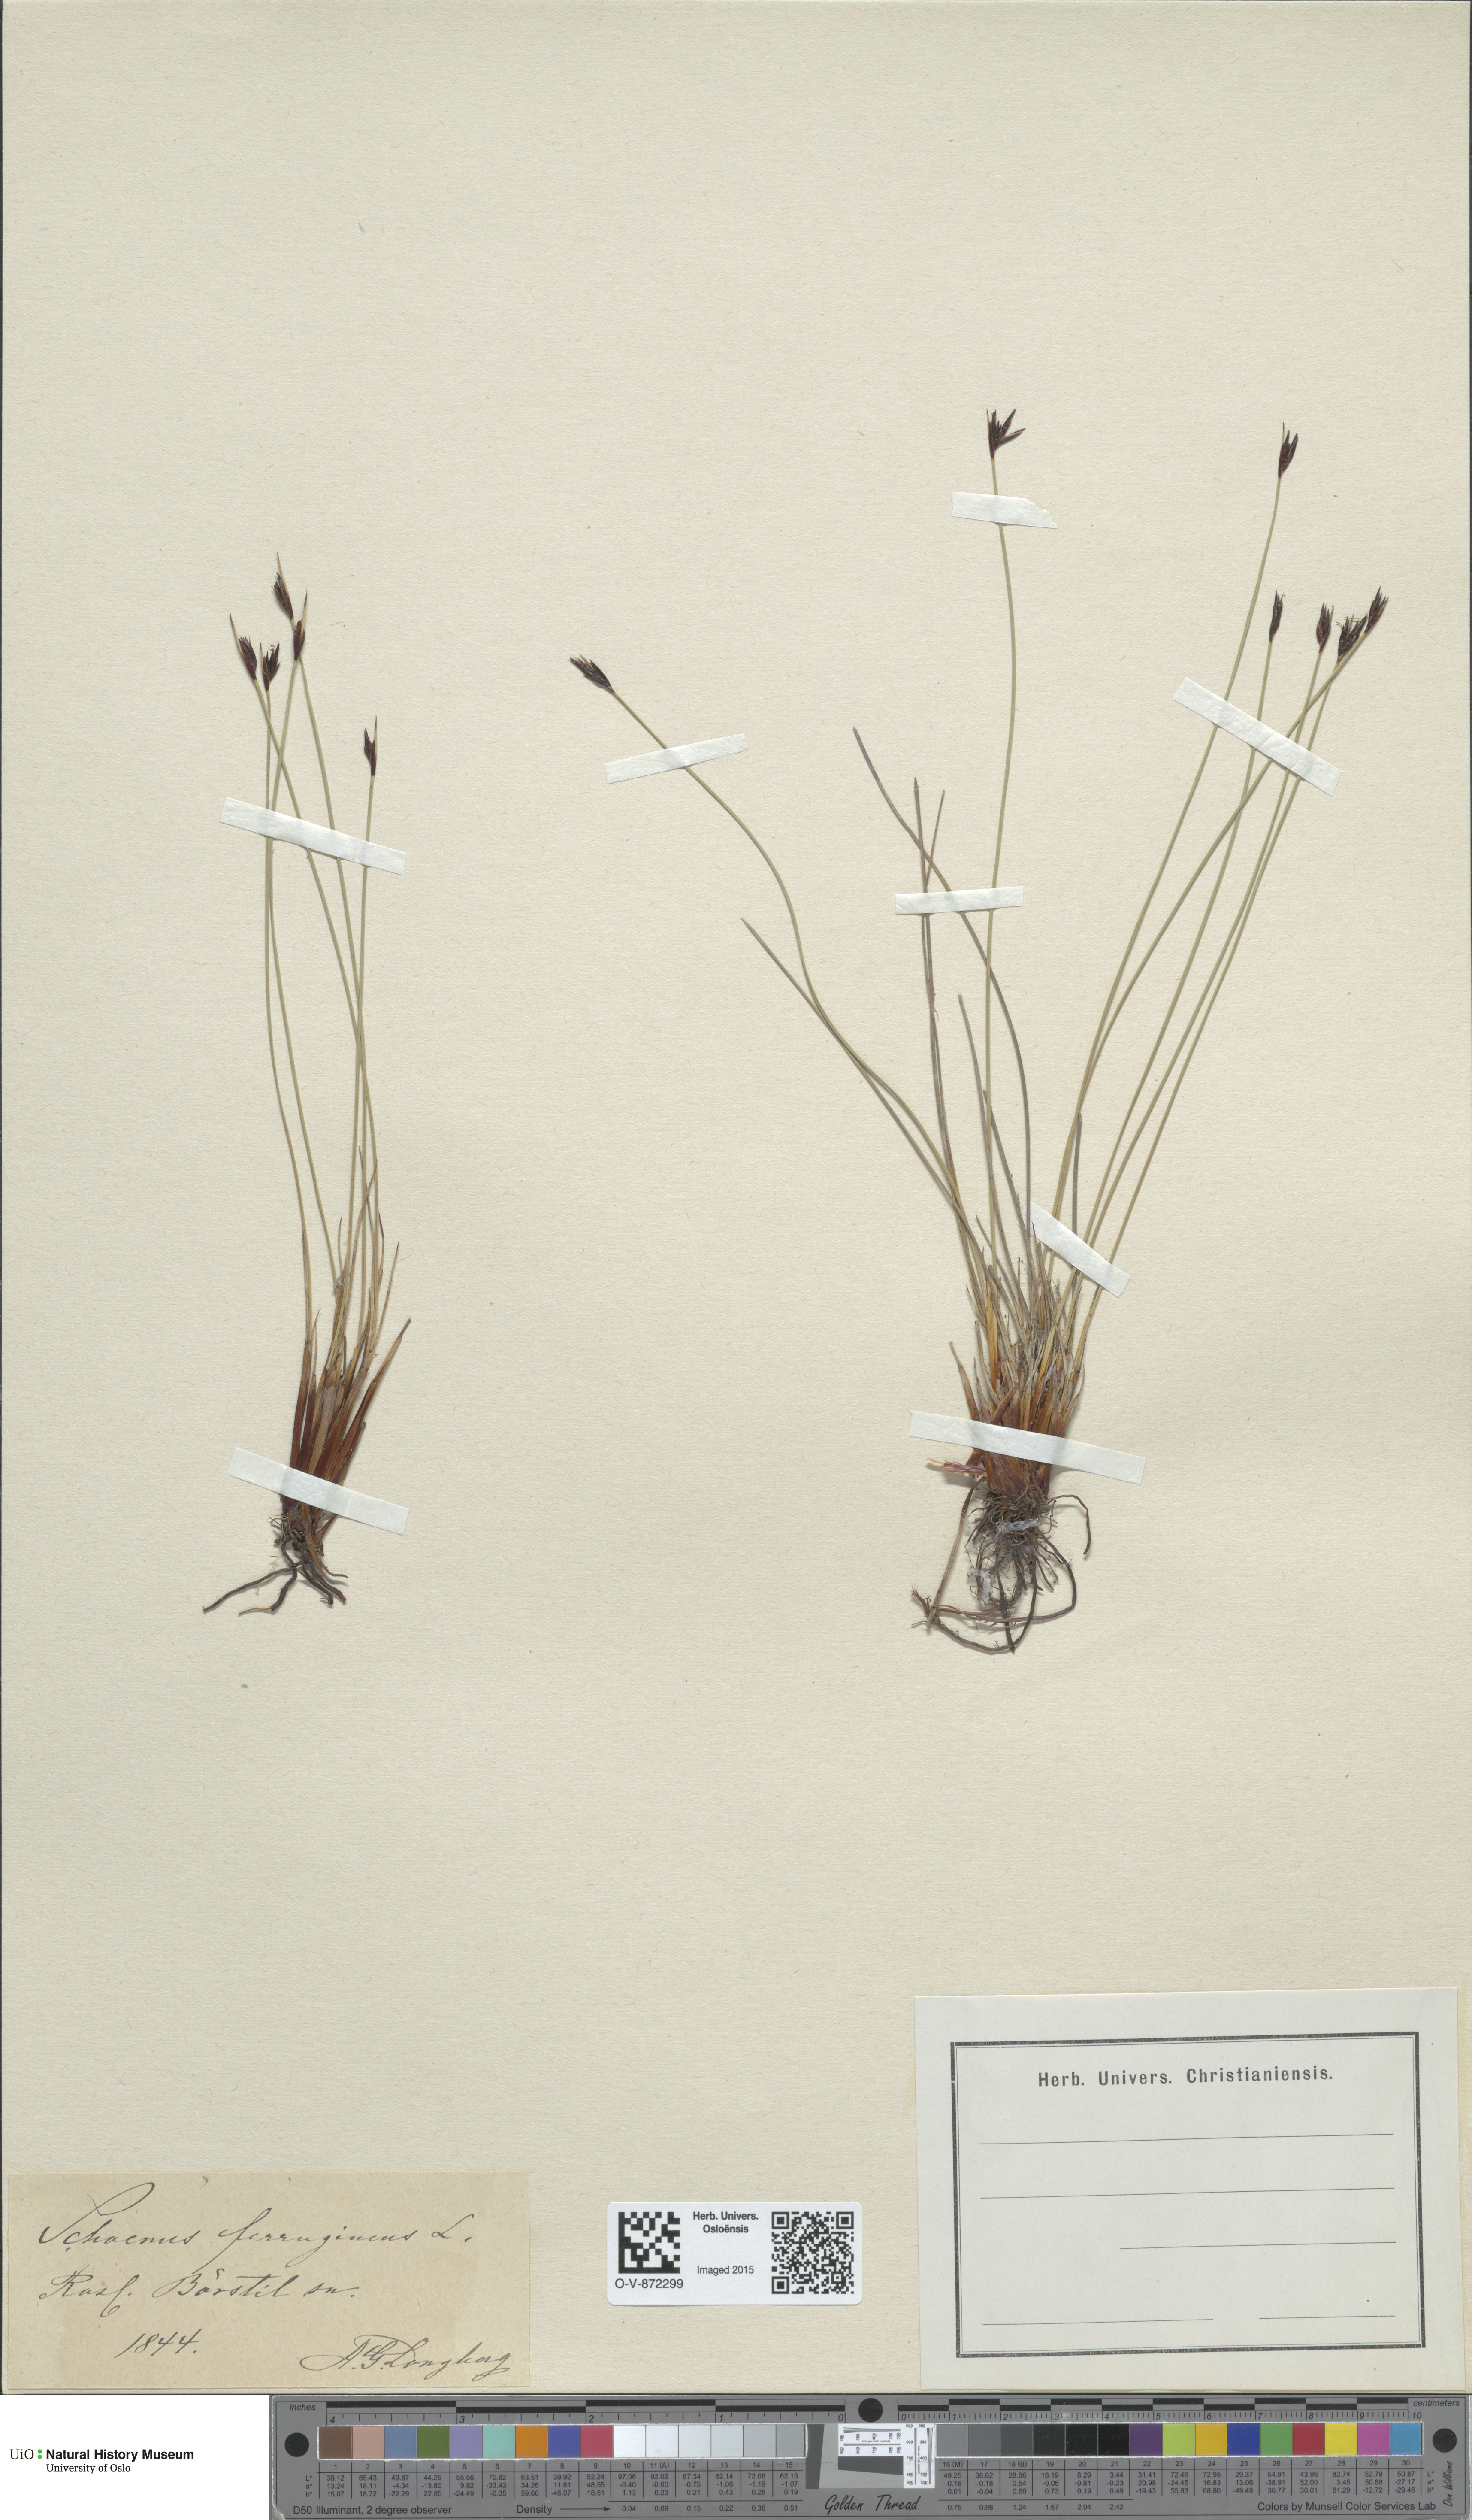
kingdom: Plantae
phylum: Tracheophyta
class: Liliopsida
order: Poales
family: Cyperaceae
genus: Schoenus
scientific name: Schoenus ferrugineus
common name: Brown bog-rush
